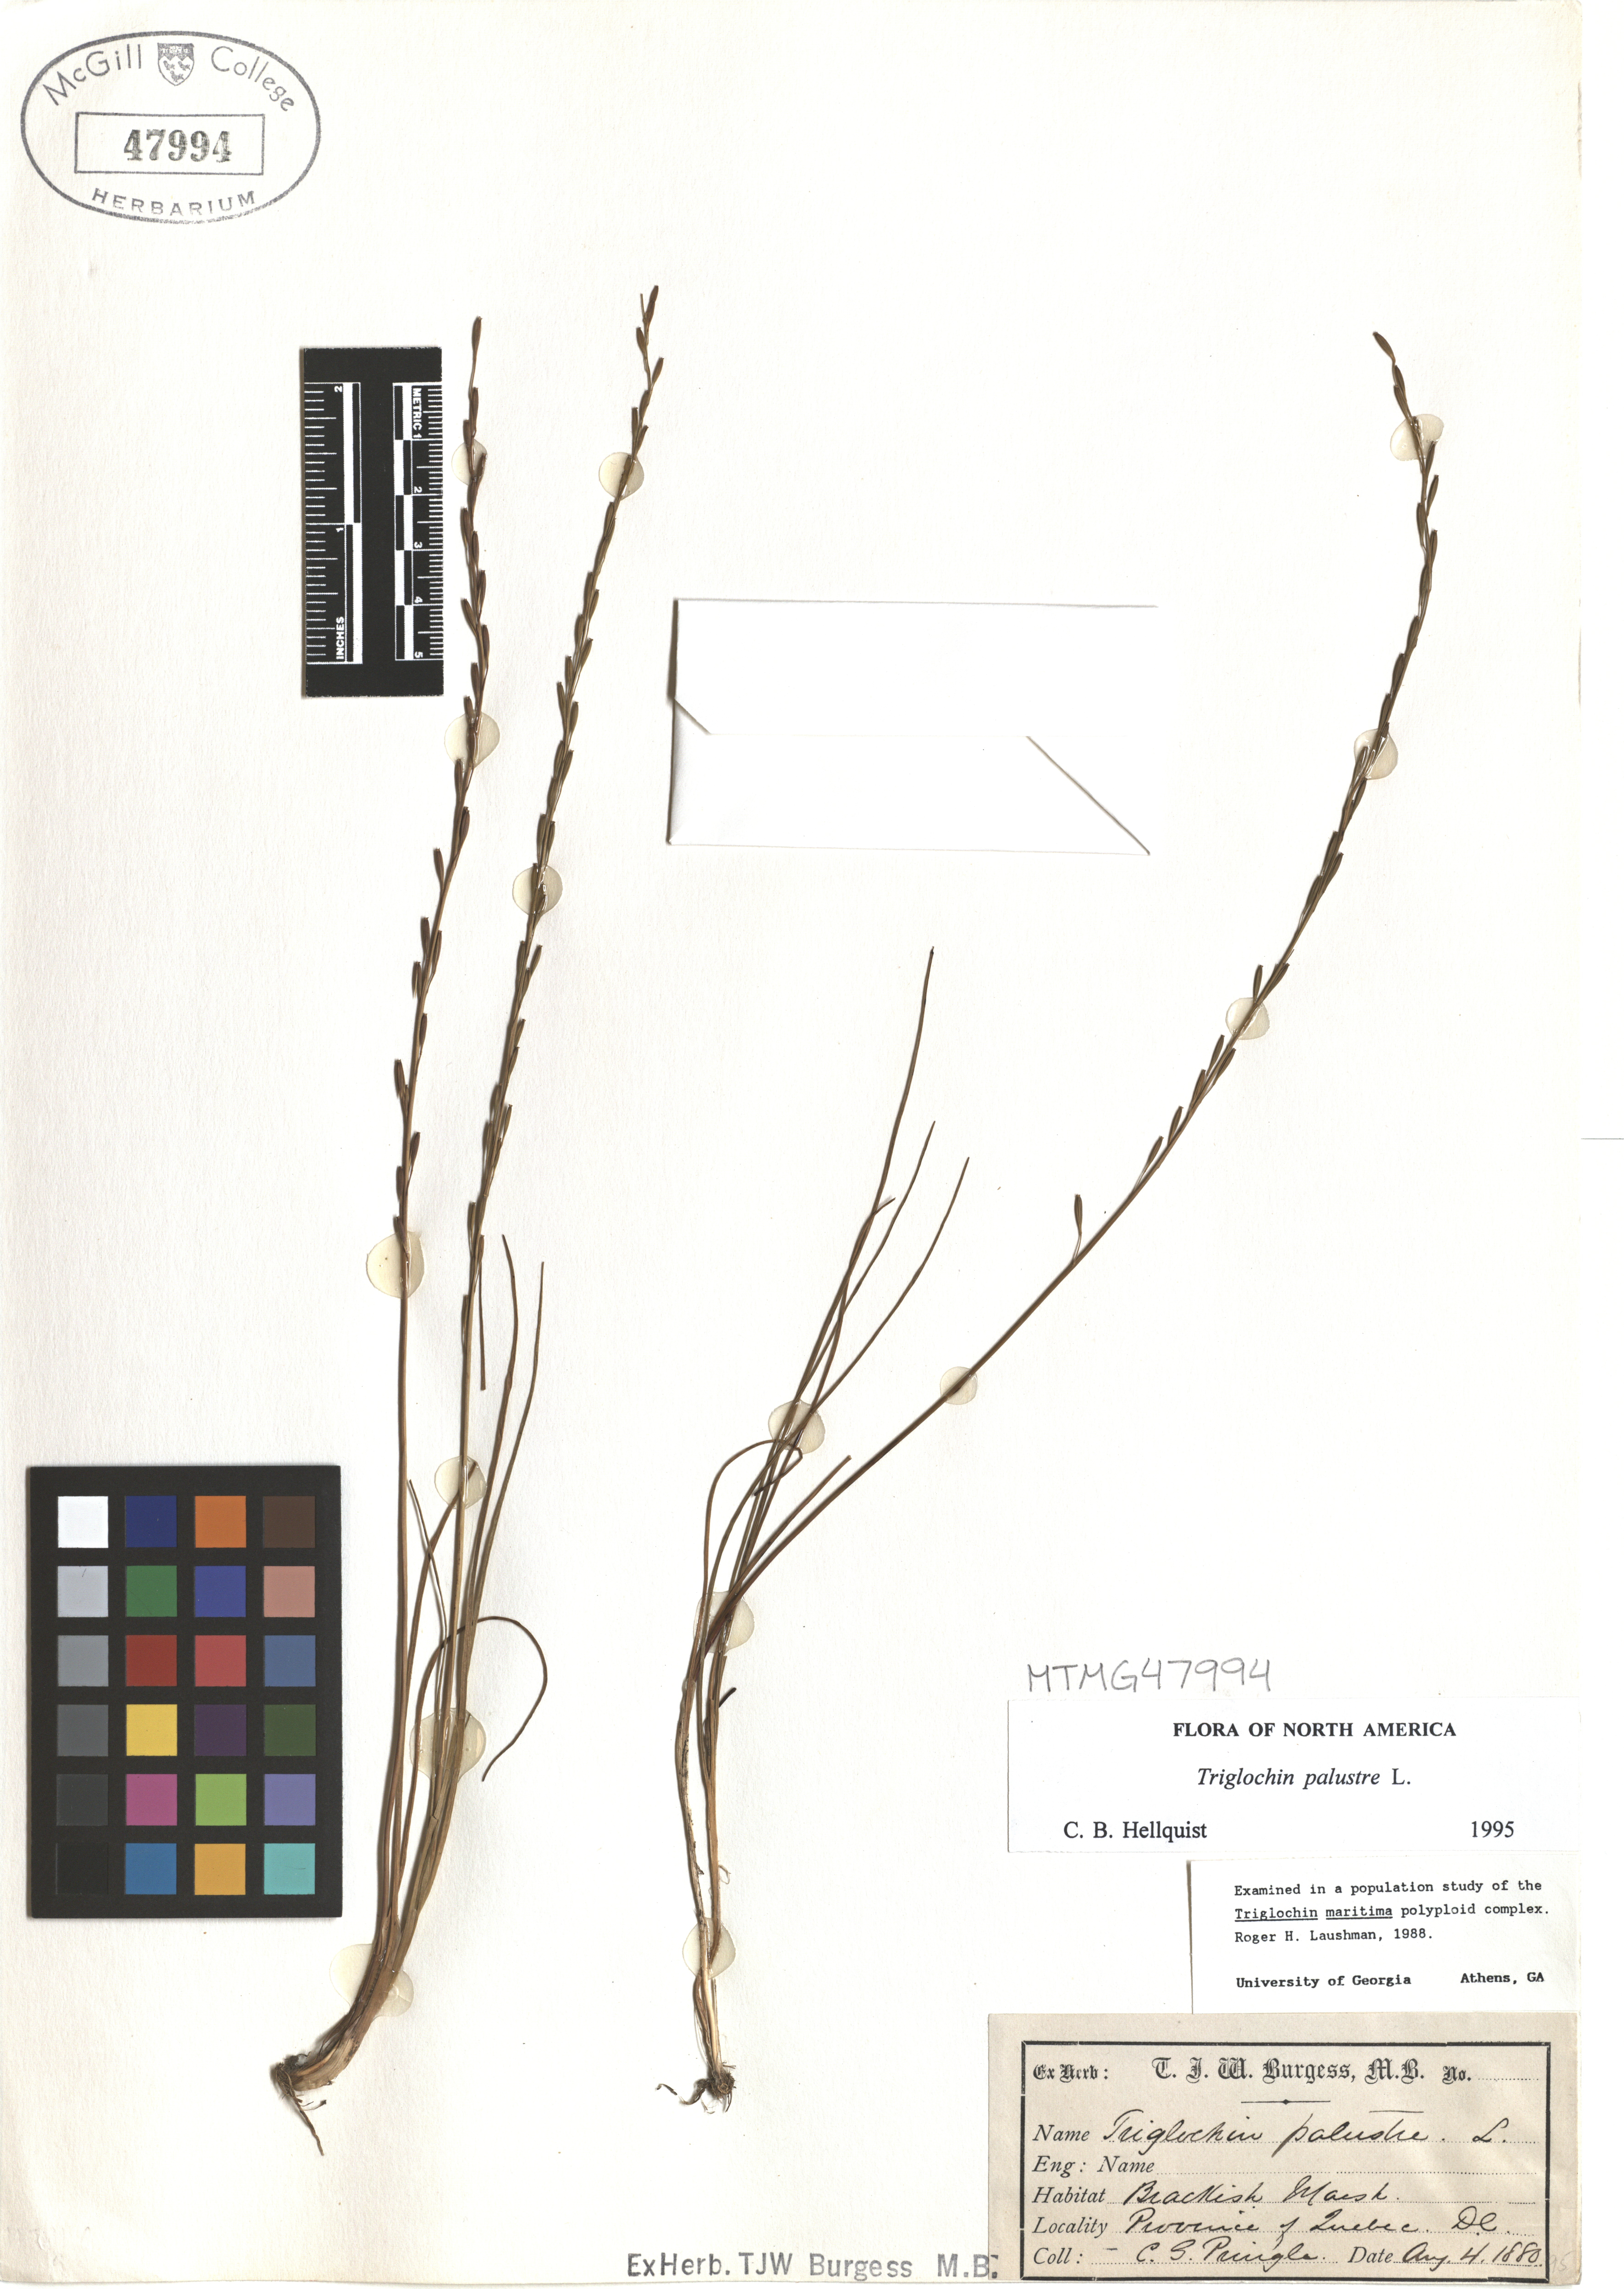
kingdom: Plantae
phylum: Tracheophyta
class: Liliopsida
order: Alismatales
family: Juncaginaceae
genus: Triglochin
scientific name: Triglochin palustris
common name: Marsh arrowgrass
